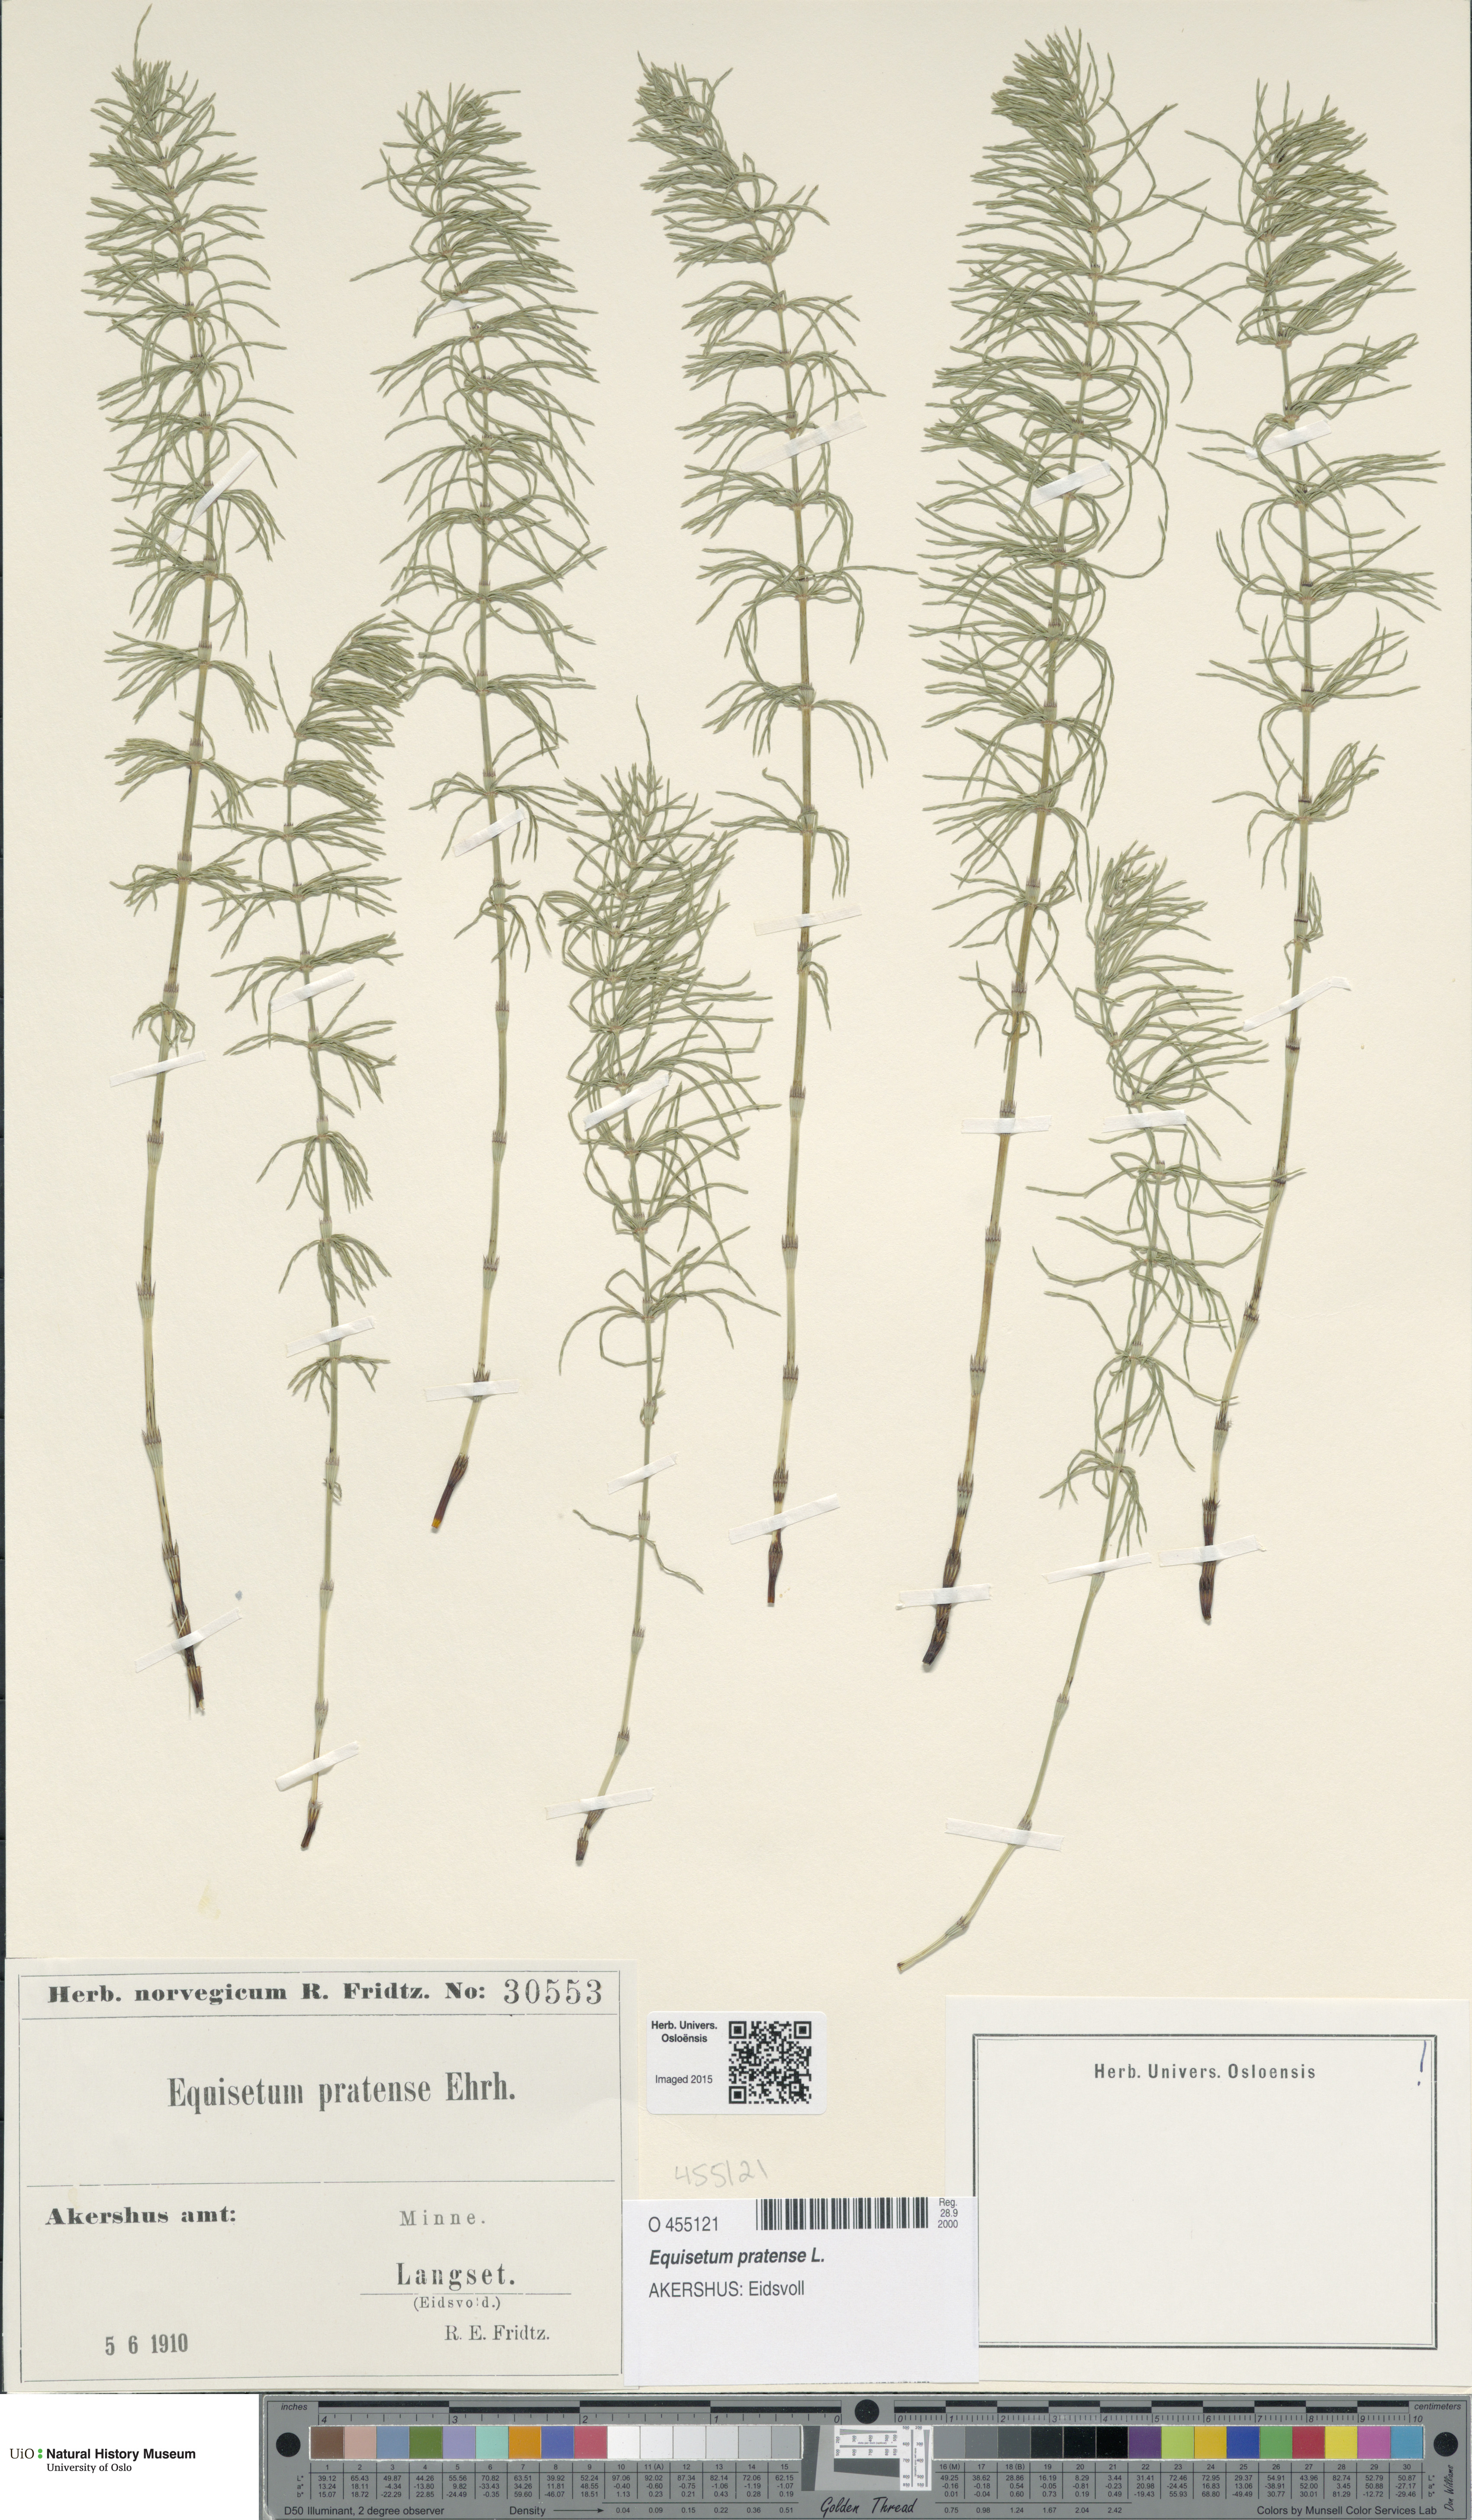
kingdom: Plantae
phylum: Tracheophyta
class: Polypodiopsida
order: Equisetales
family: Equisetaceae
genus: Equisetum
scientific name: Equisetum pratense
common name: Meadow horsetail
